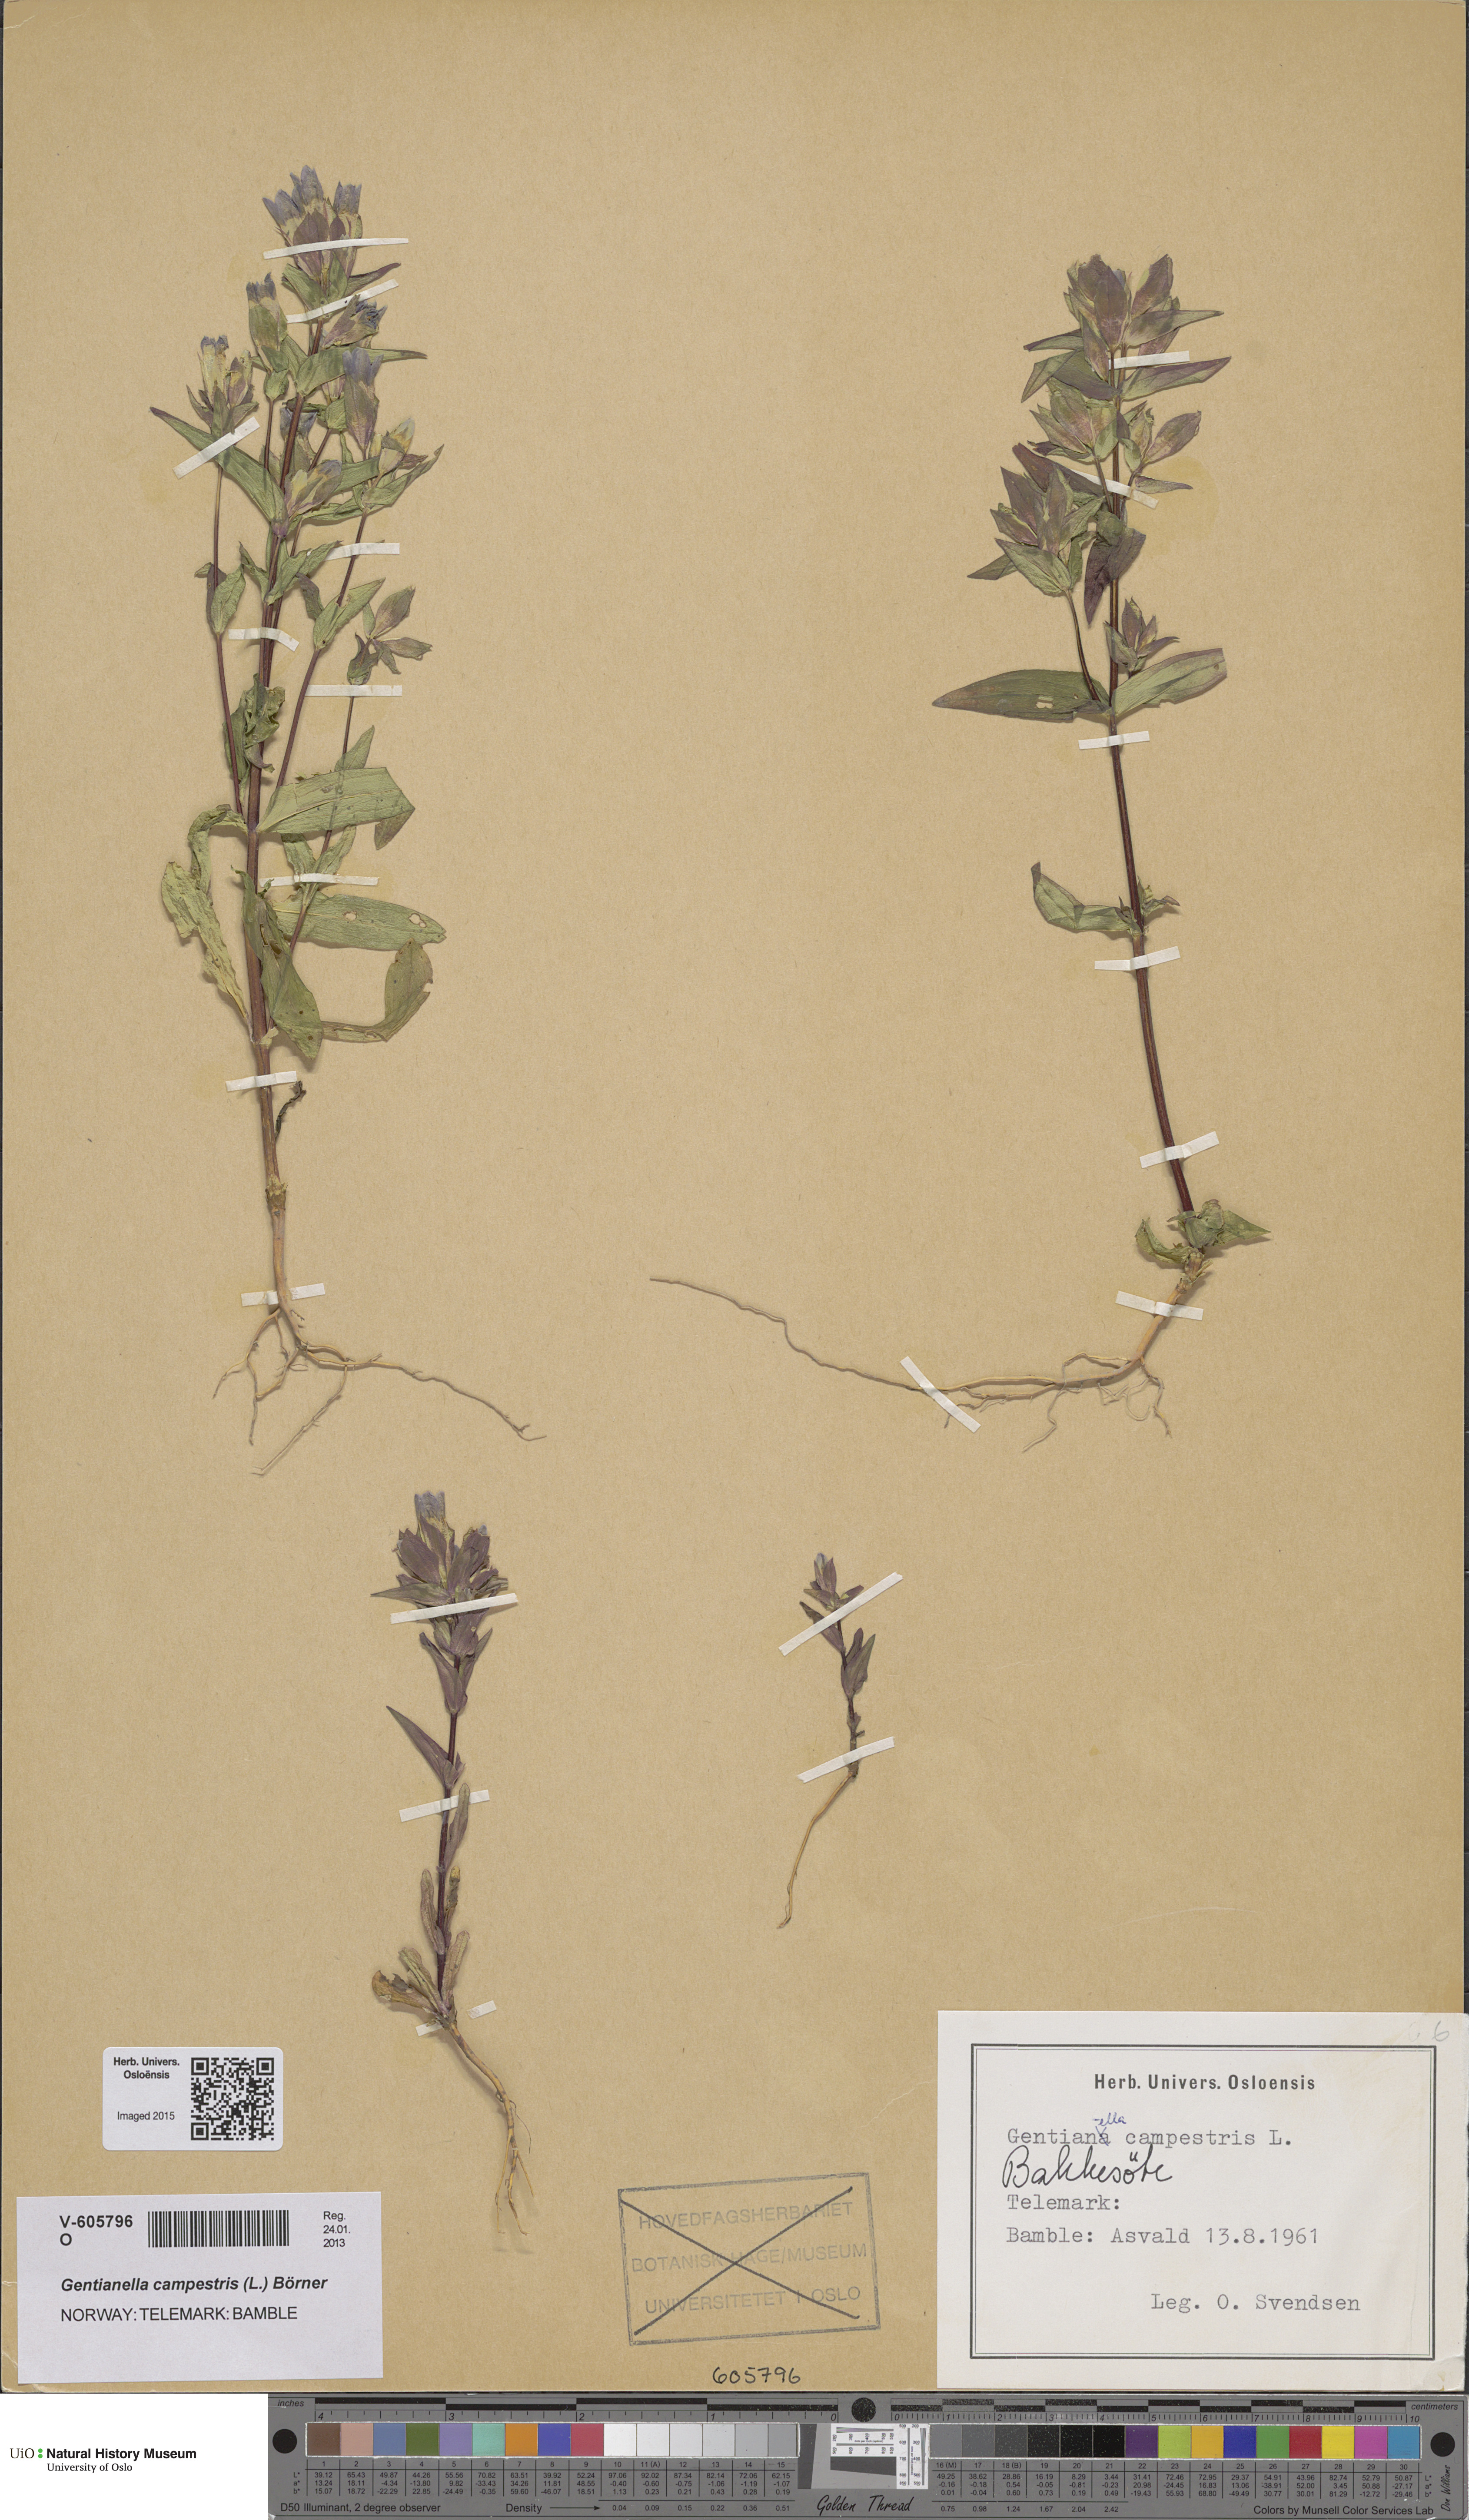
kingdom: Plantae
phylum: Tracheophyta
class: Magnoliopsida
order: Gentianales
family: Gentianaceae
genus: Gentianella
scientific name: Gentianella campestris
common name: Field gentian
